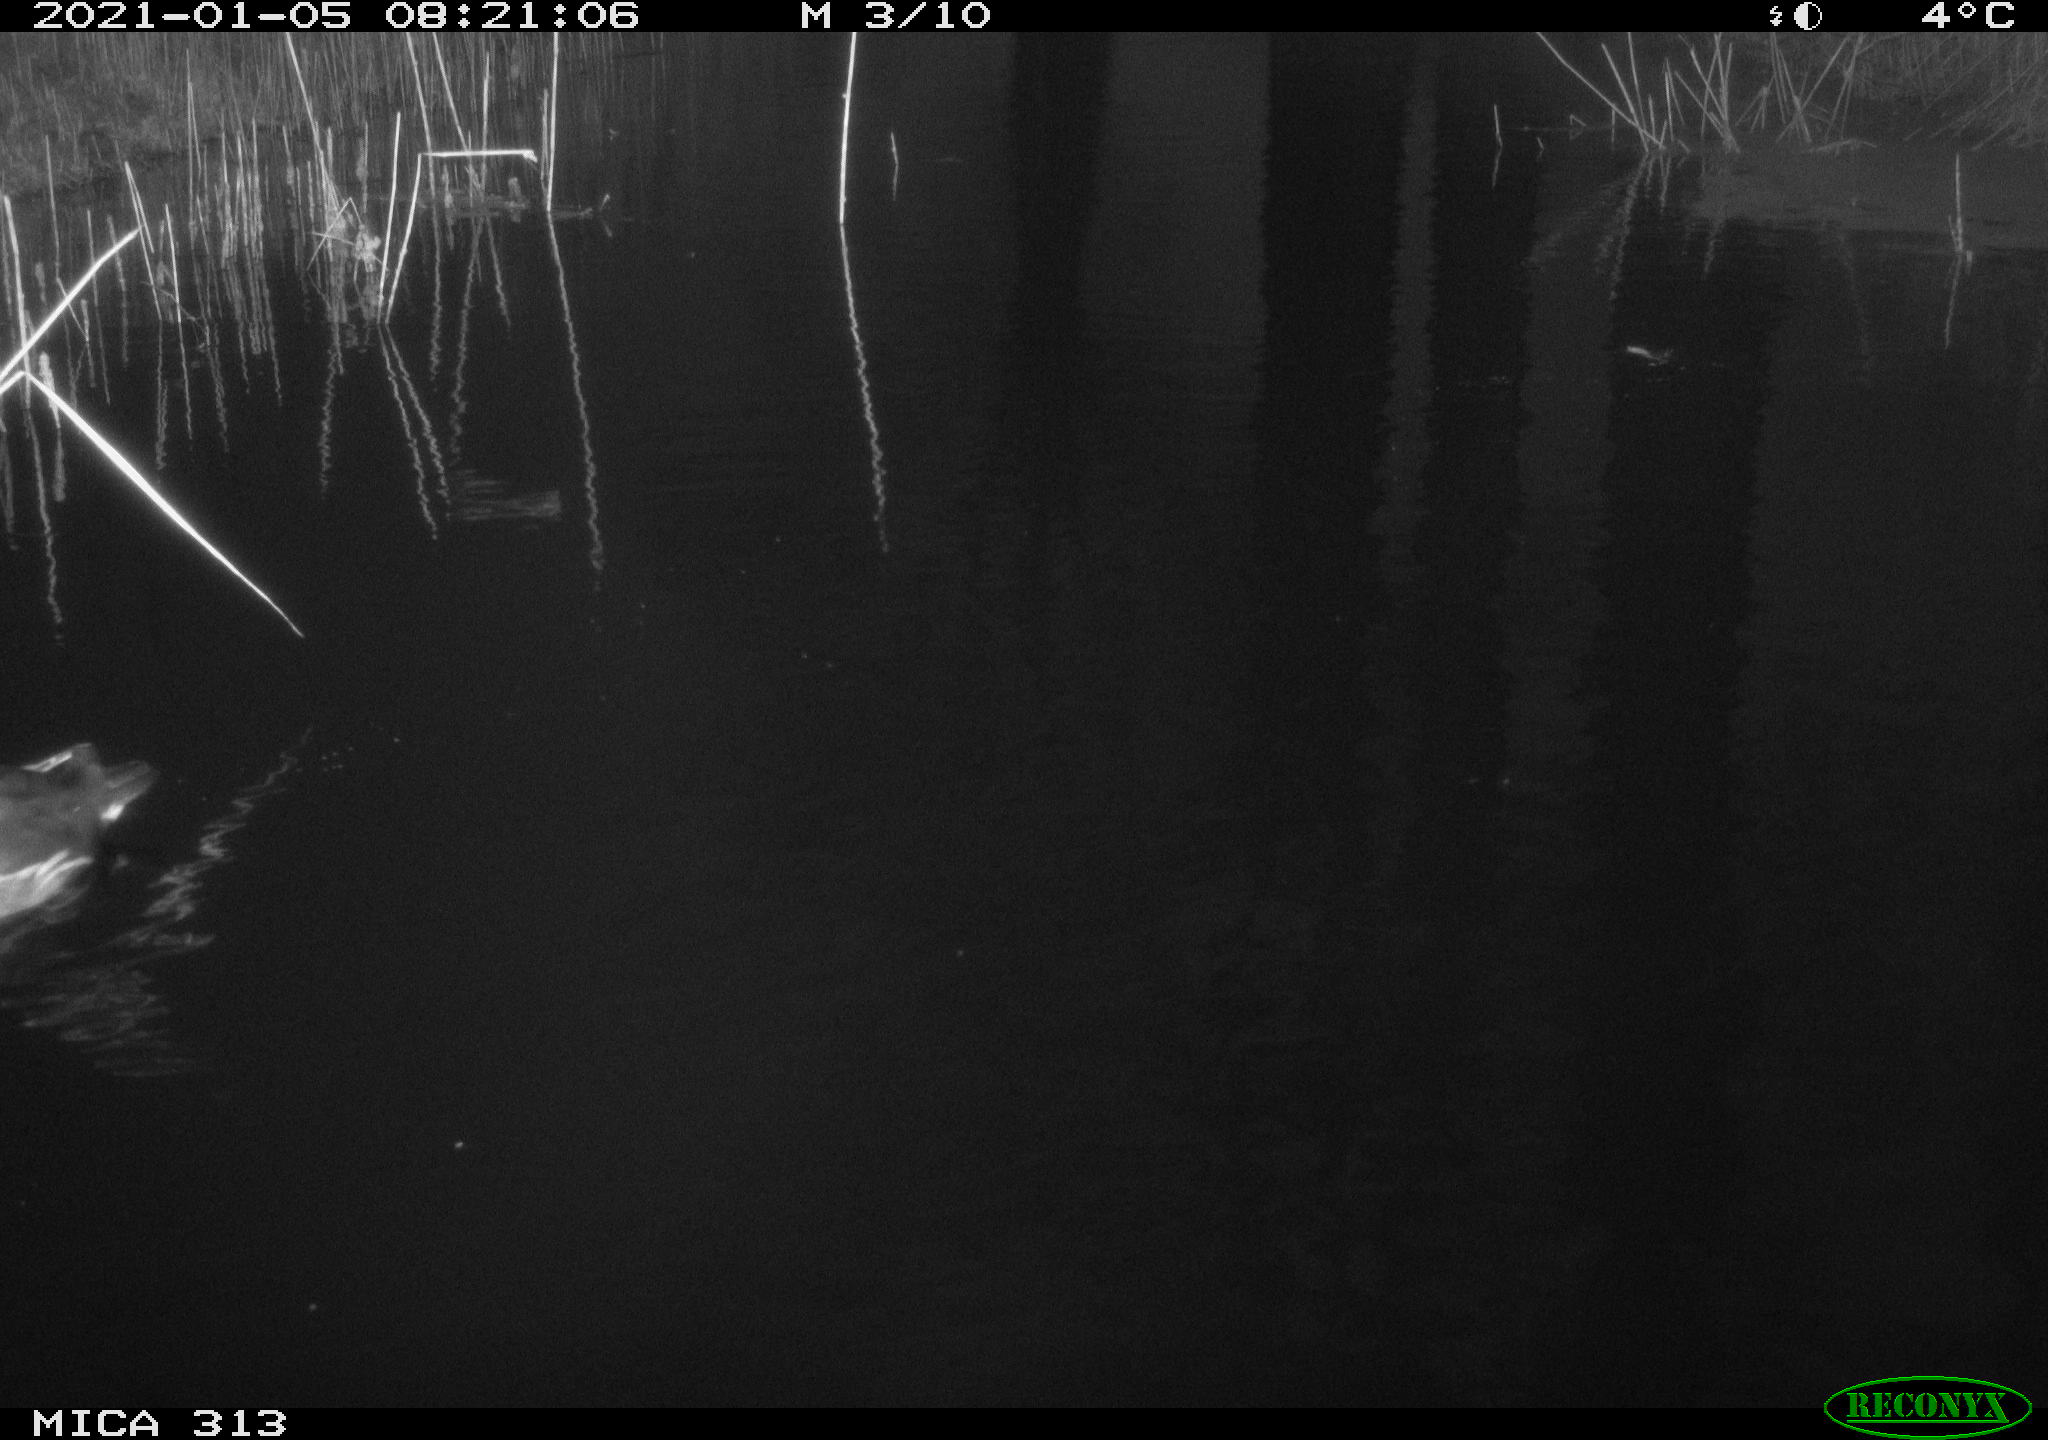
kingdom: Animalia
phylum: Chordata
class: Aves
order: Gruiformes
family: Rallidae
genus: Gallinula
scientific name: Gallinula chloropus
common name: Common moorhen
